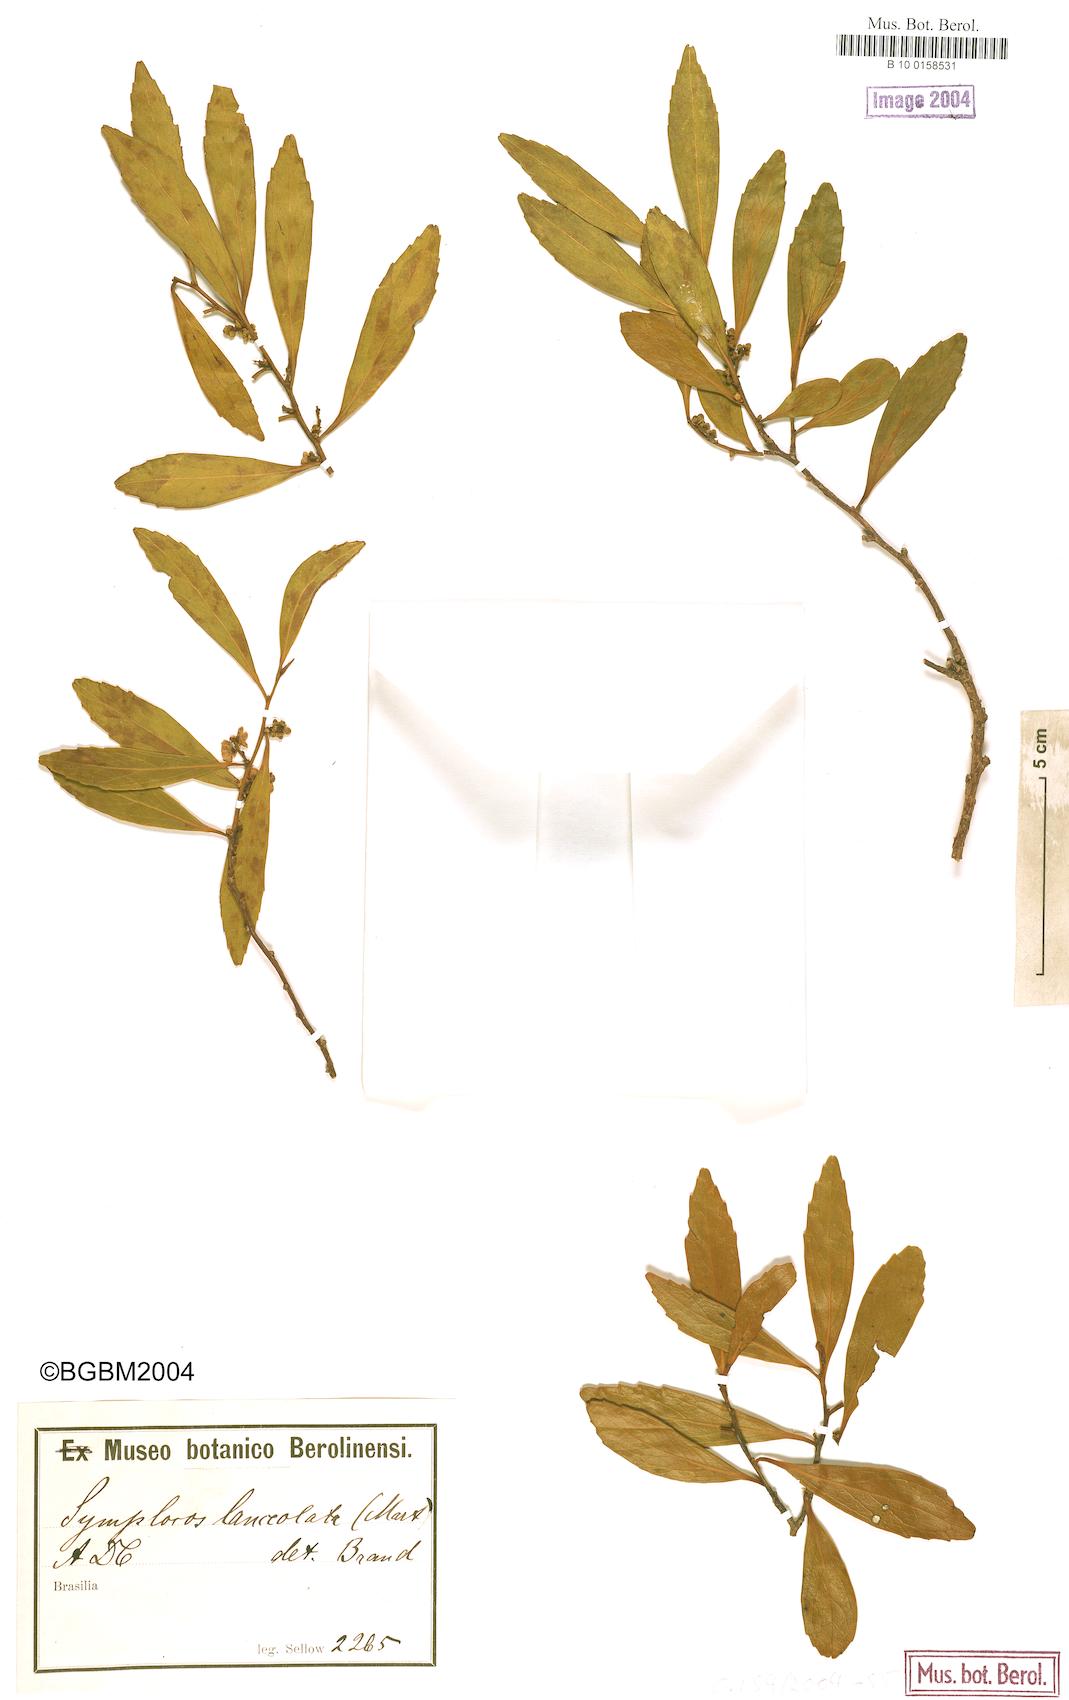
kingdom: Plantae
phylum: Tracheophyta
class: Magnoliopsida
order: Ericales
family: Symplocaceae
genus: Symplocos
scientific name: Symplocos oblongifolia
